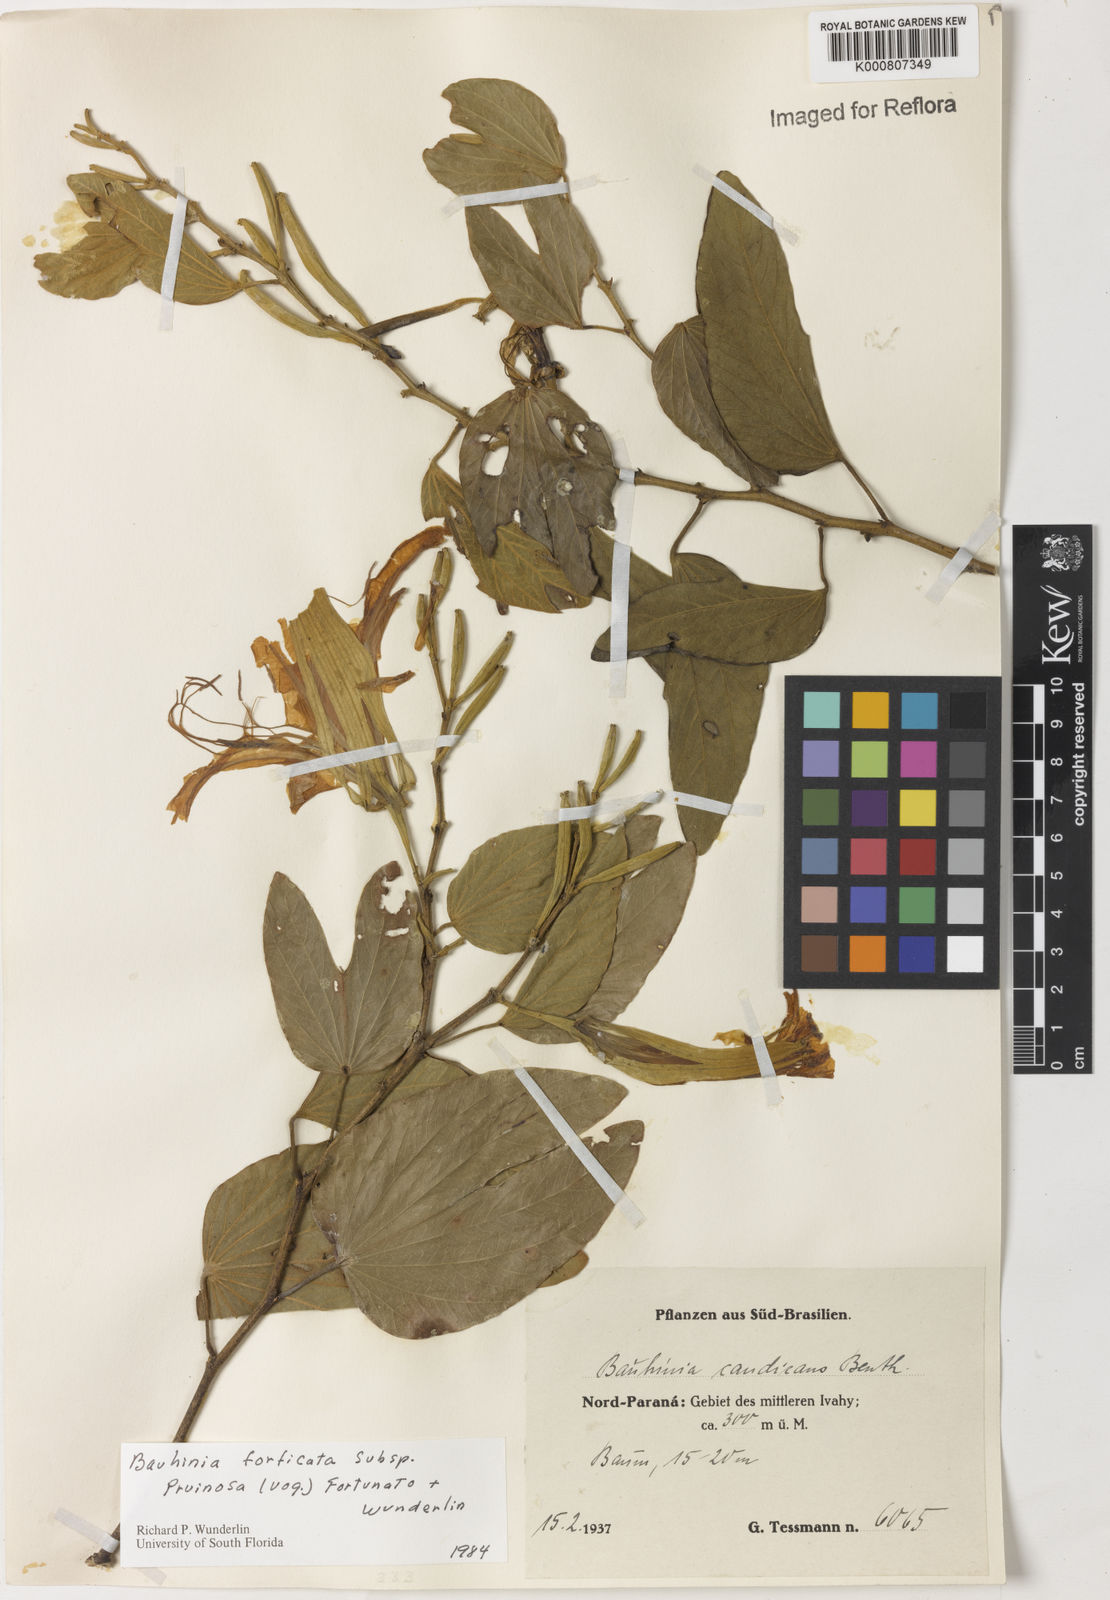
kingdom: Plantae
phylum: Tracheophyta
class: Magnoliopsida
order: Fabales
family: Fabaceae
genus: Bauhinia
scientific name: Bauhinia forficata
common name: Orchid tree
